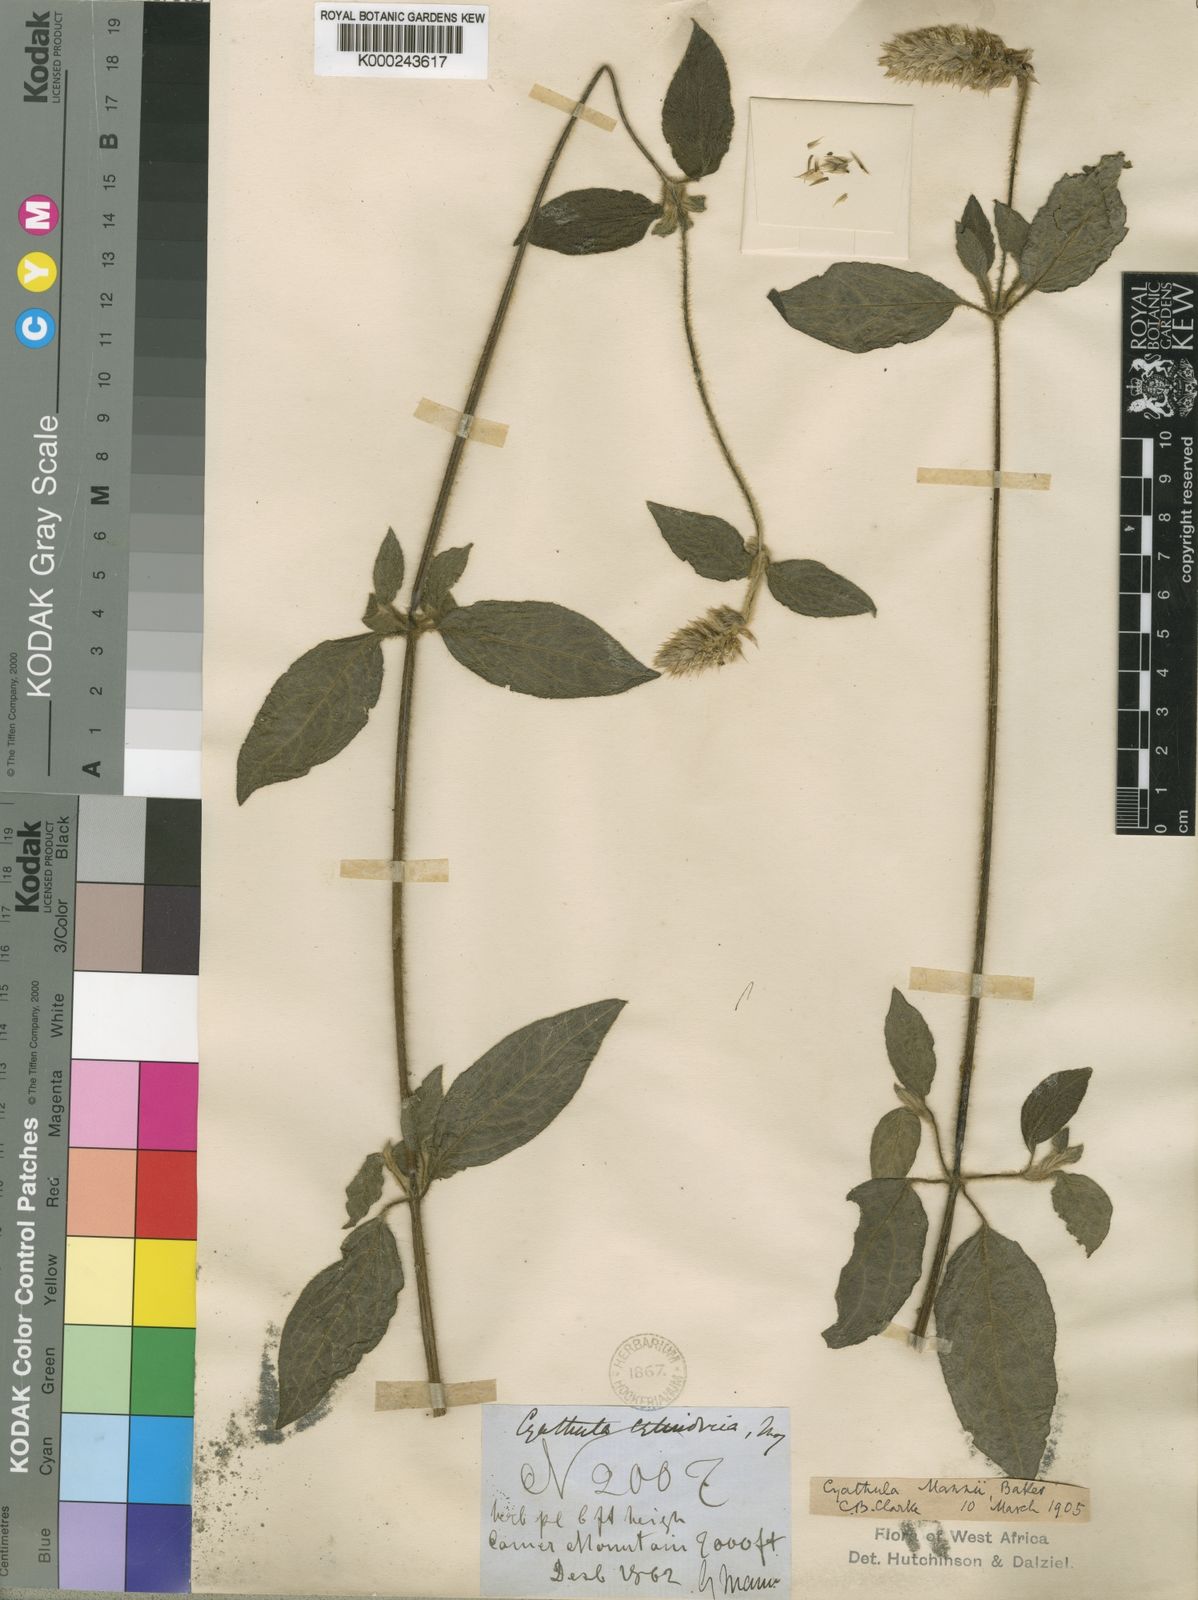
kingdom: Plantae
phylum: Tracheophyta
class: Magnoliopsida
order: Caryophyllales
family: Amaranthaceae
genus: Cyathula
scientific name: Cyathula cylindrica
